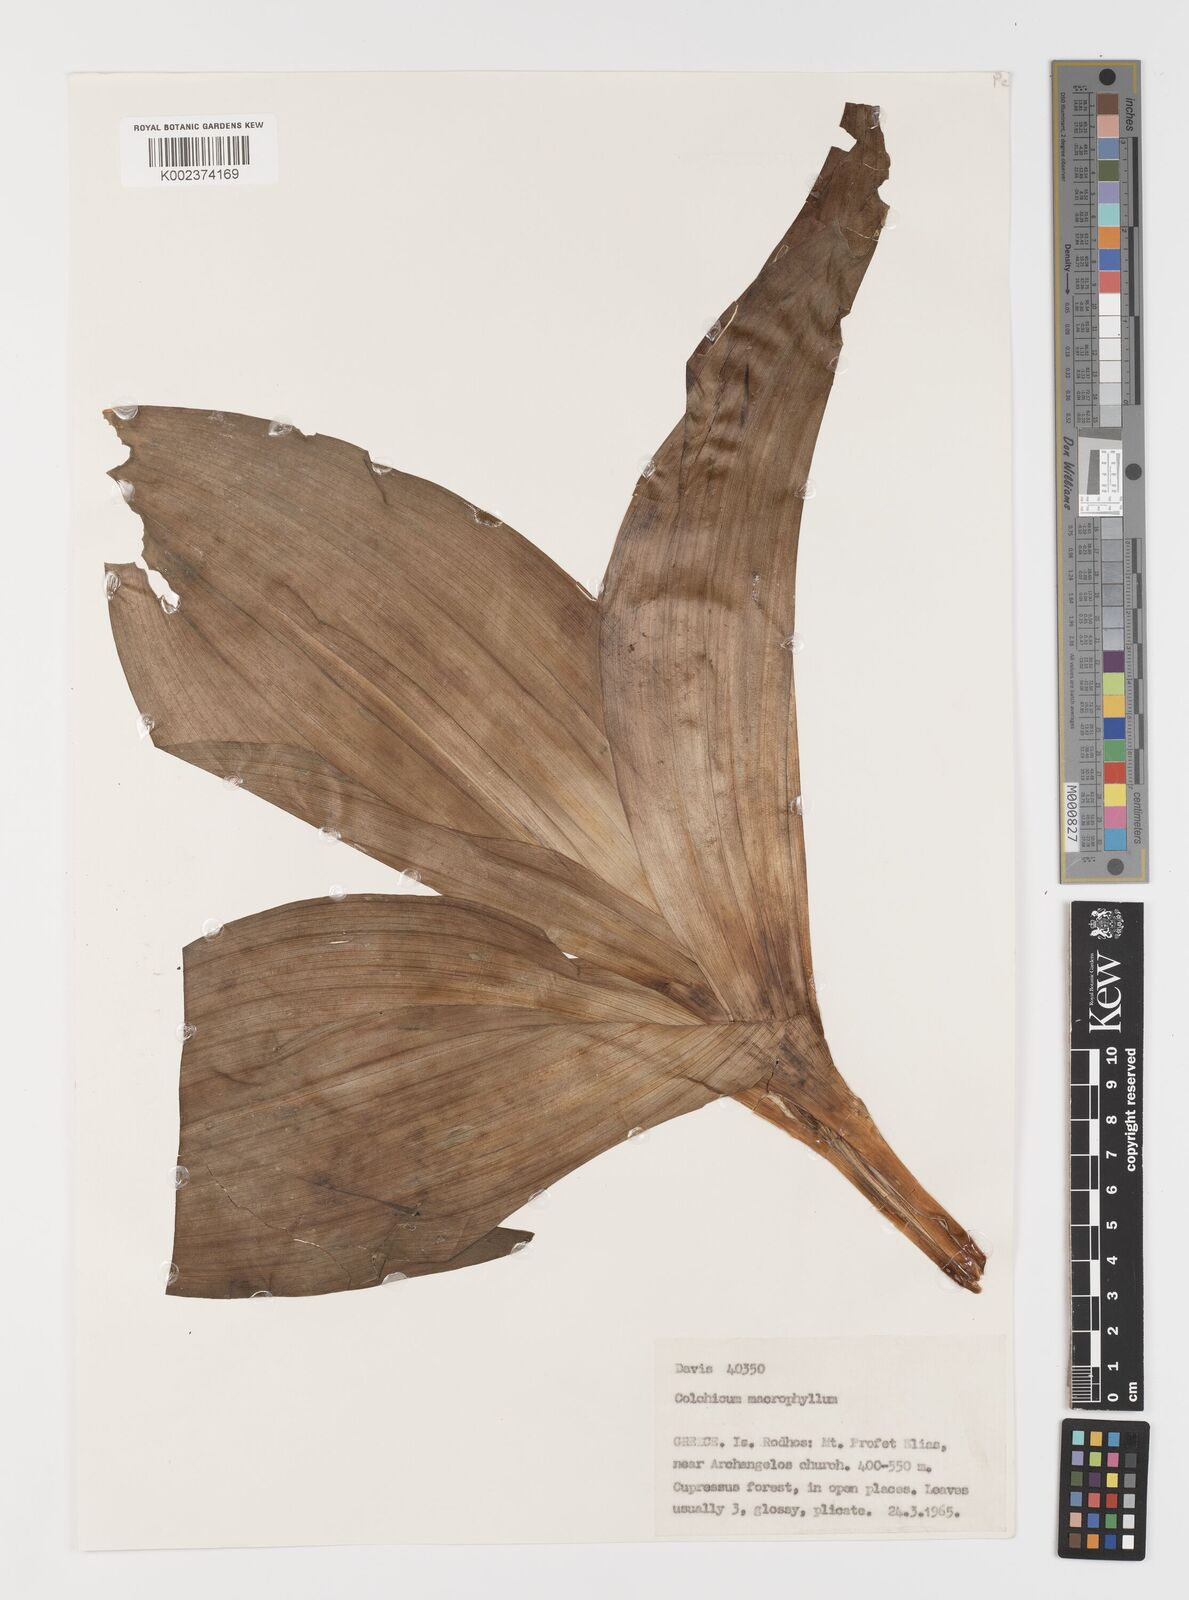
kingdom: Plantae
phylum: Tracheophyta
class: Liliopsida
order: Liliales
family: Colchicaceae
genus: Colchicum
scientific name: Colchicum macrophyllum
